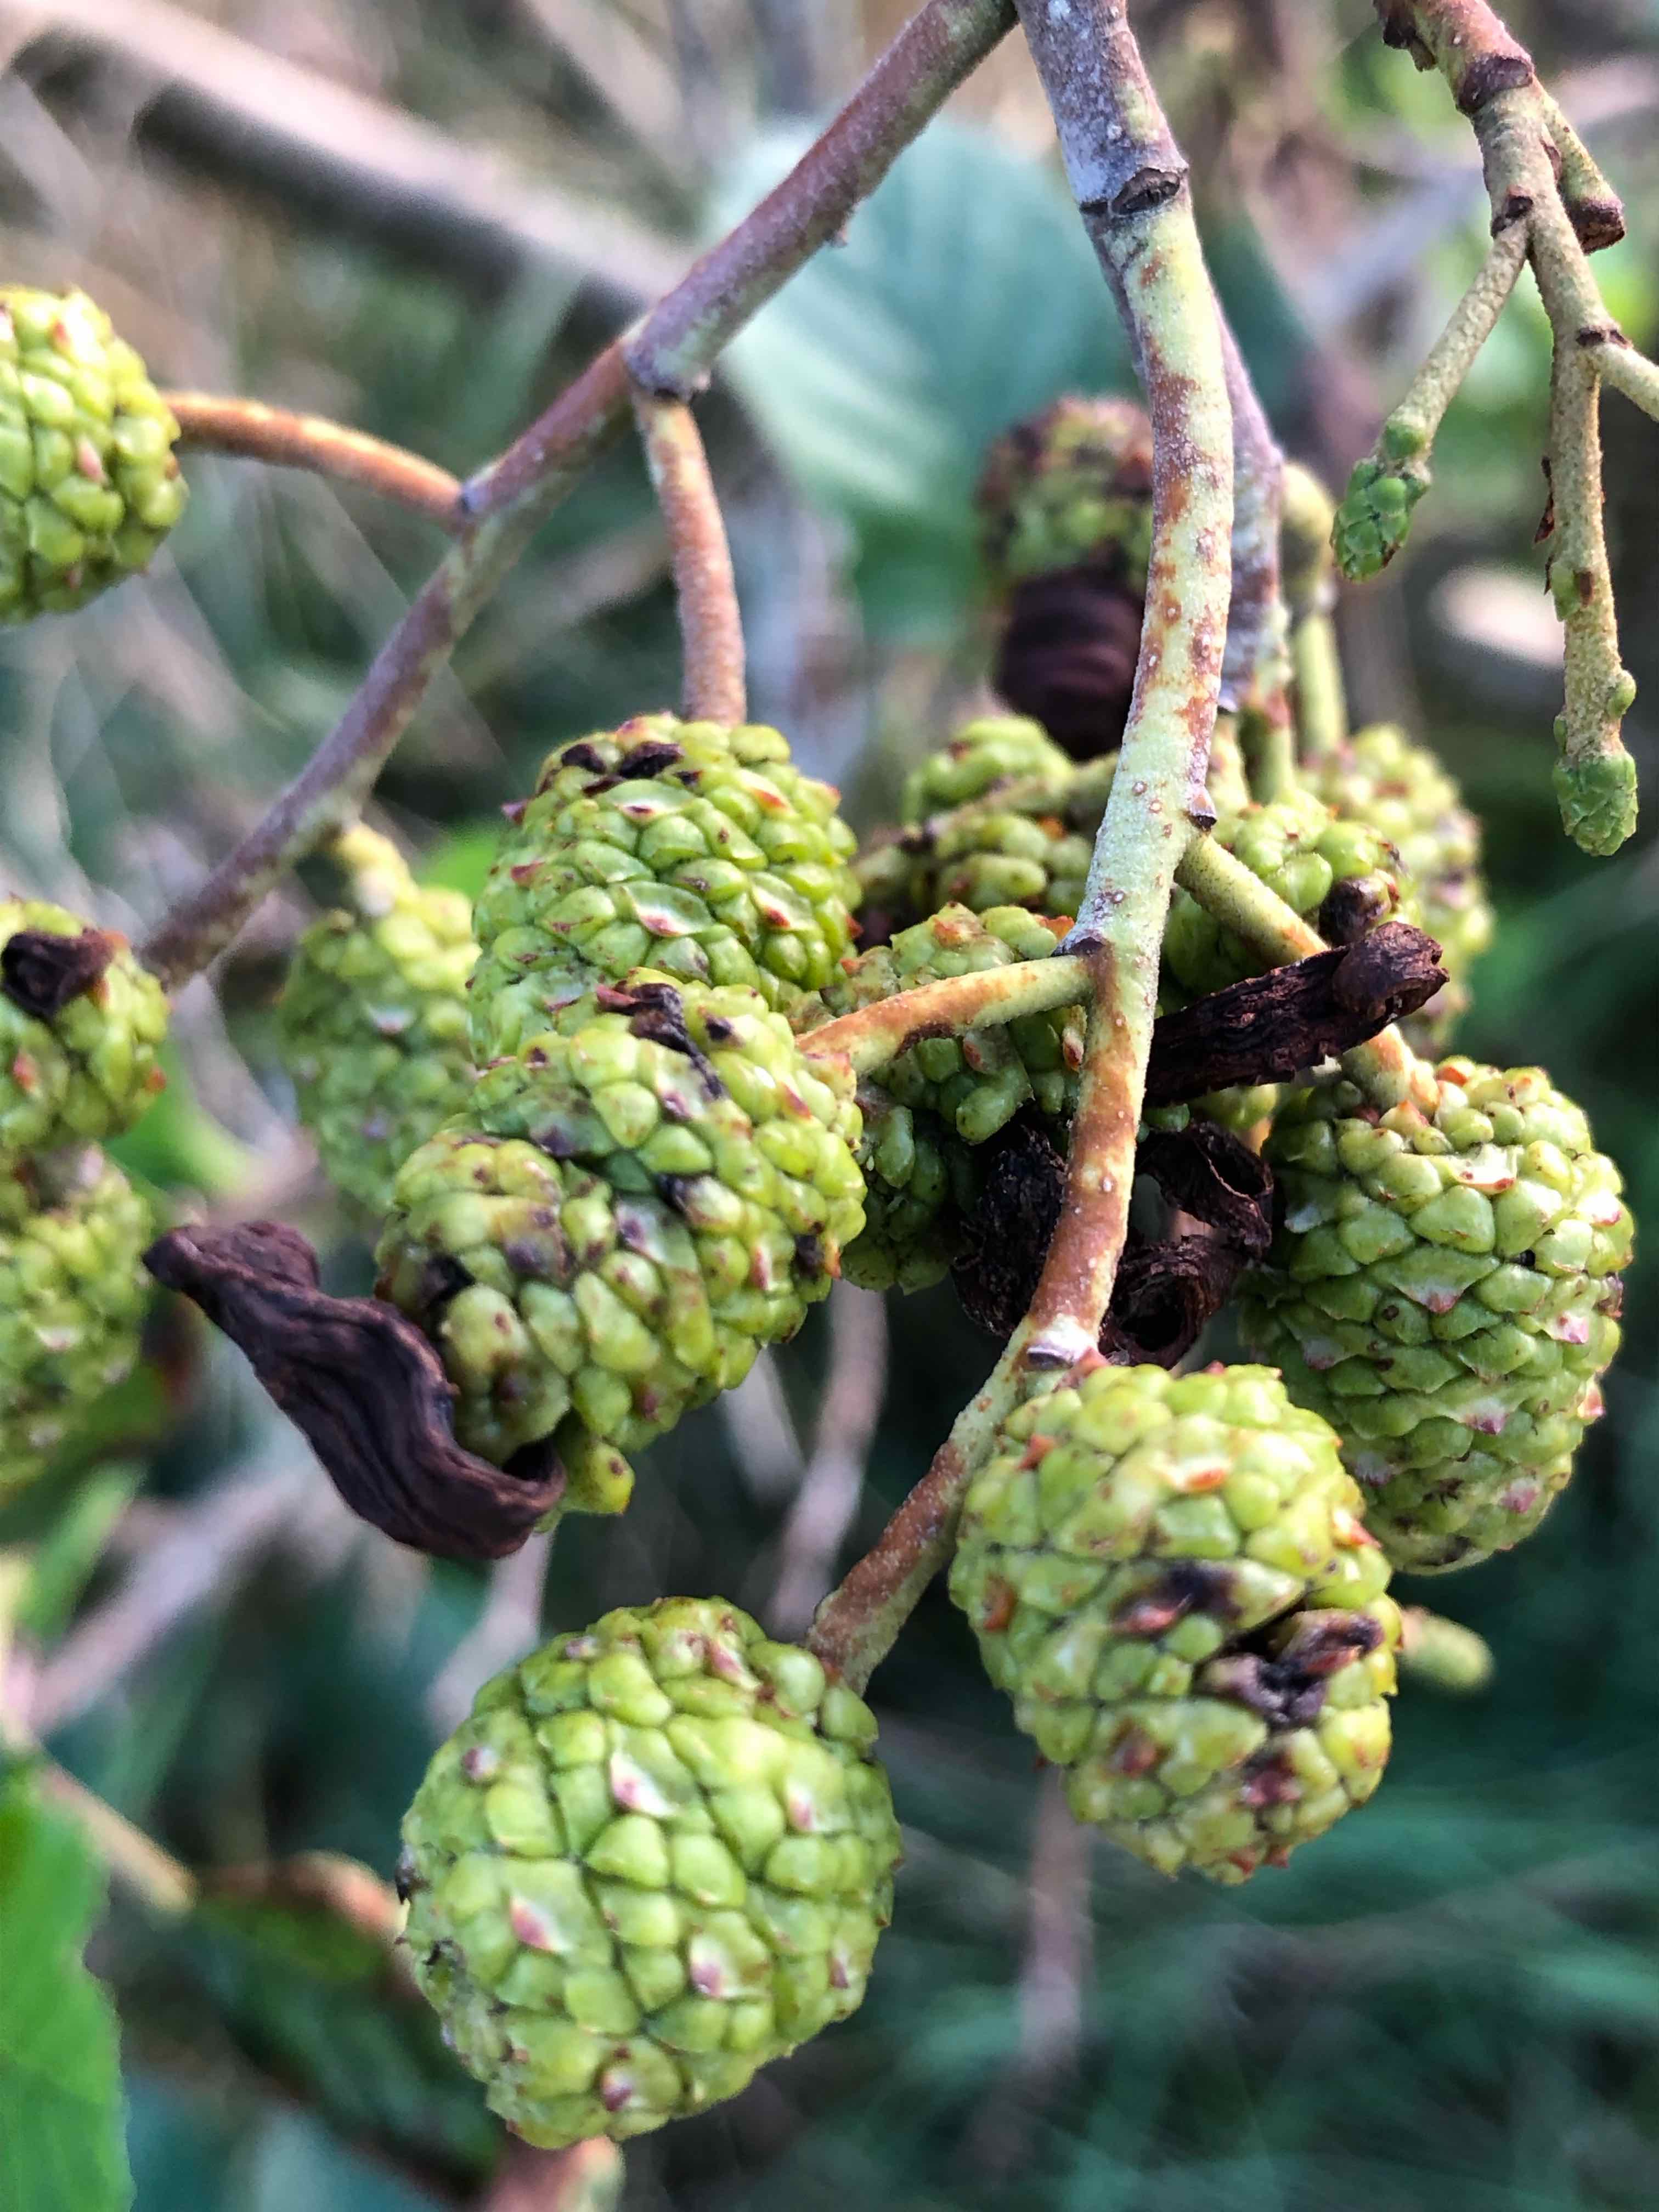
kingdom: Fungi
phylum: Ascomycota
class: Taphrinomycetes
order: Taphrinales
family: Taphrinaceae
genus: Taphrina
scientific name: Taphrina alni
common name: Alder tongue
